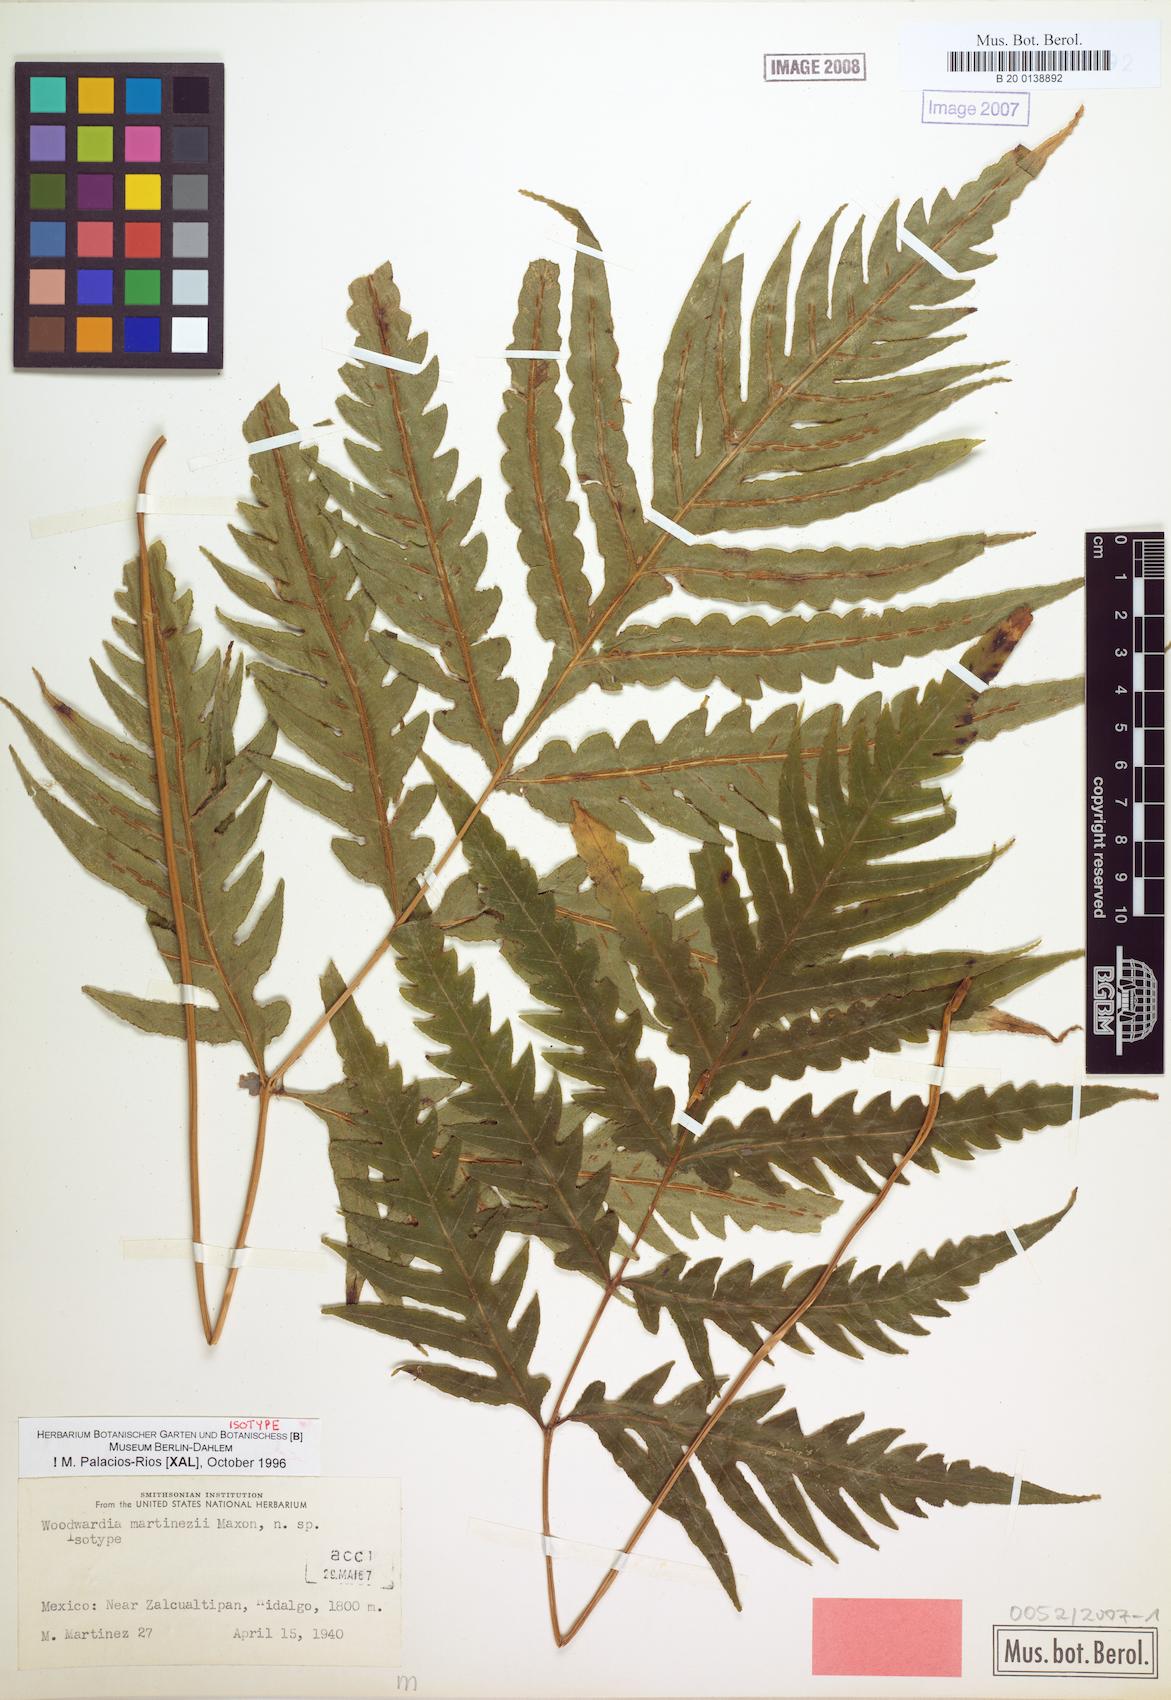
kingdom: Plantae
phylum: Tracheophyta
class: Polypodiopsida
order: Polypodiales
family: Blechnaceae
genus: Woodwardia
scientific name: Woodwardia martinezii
